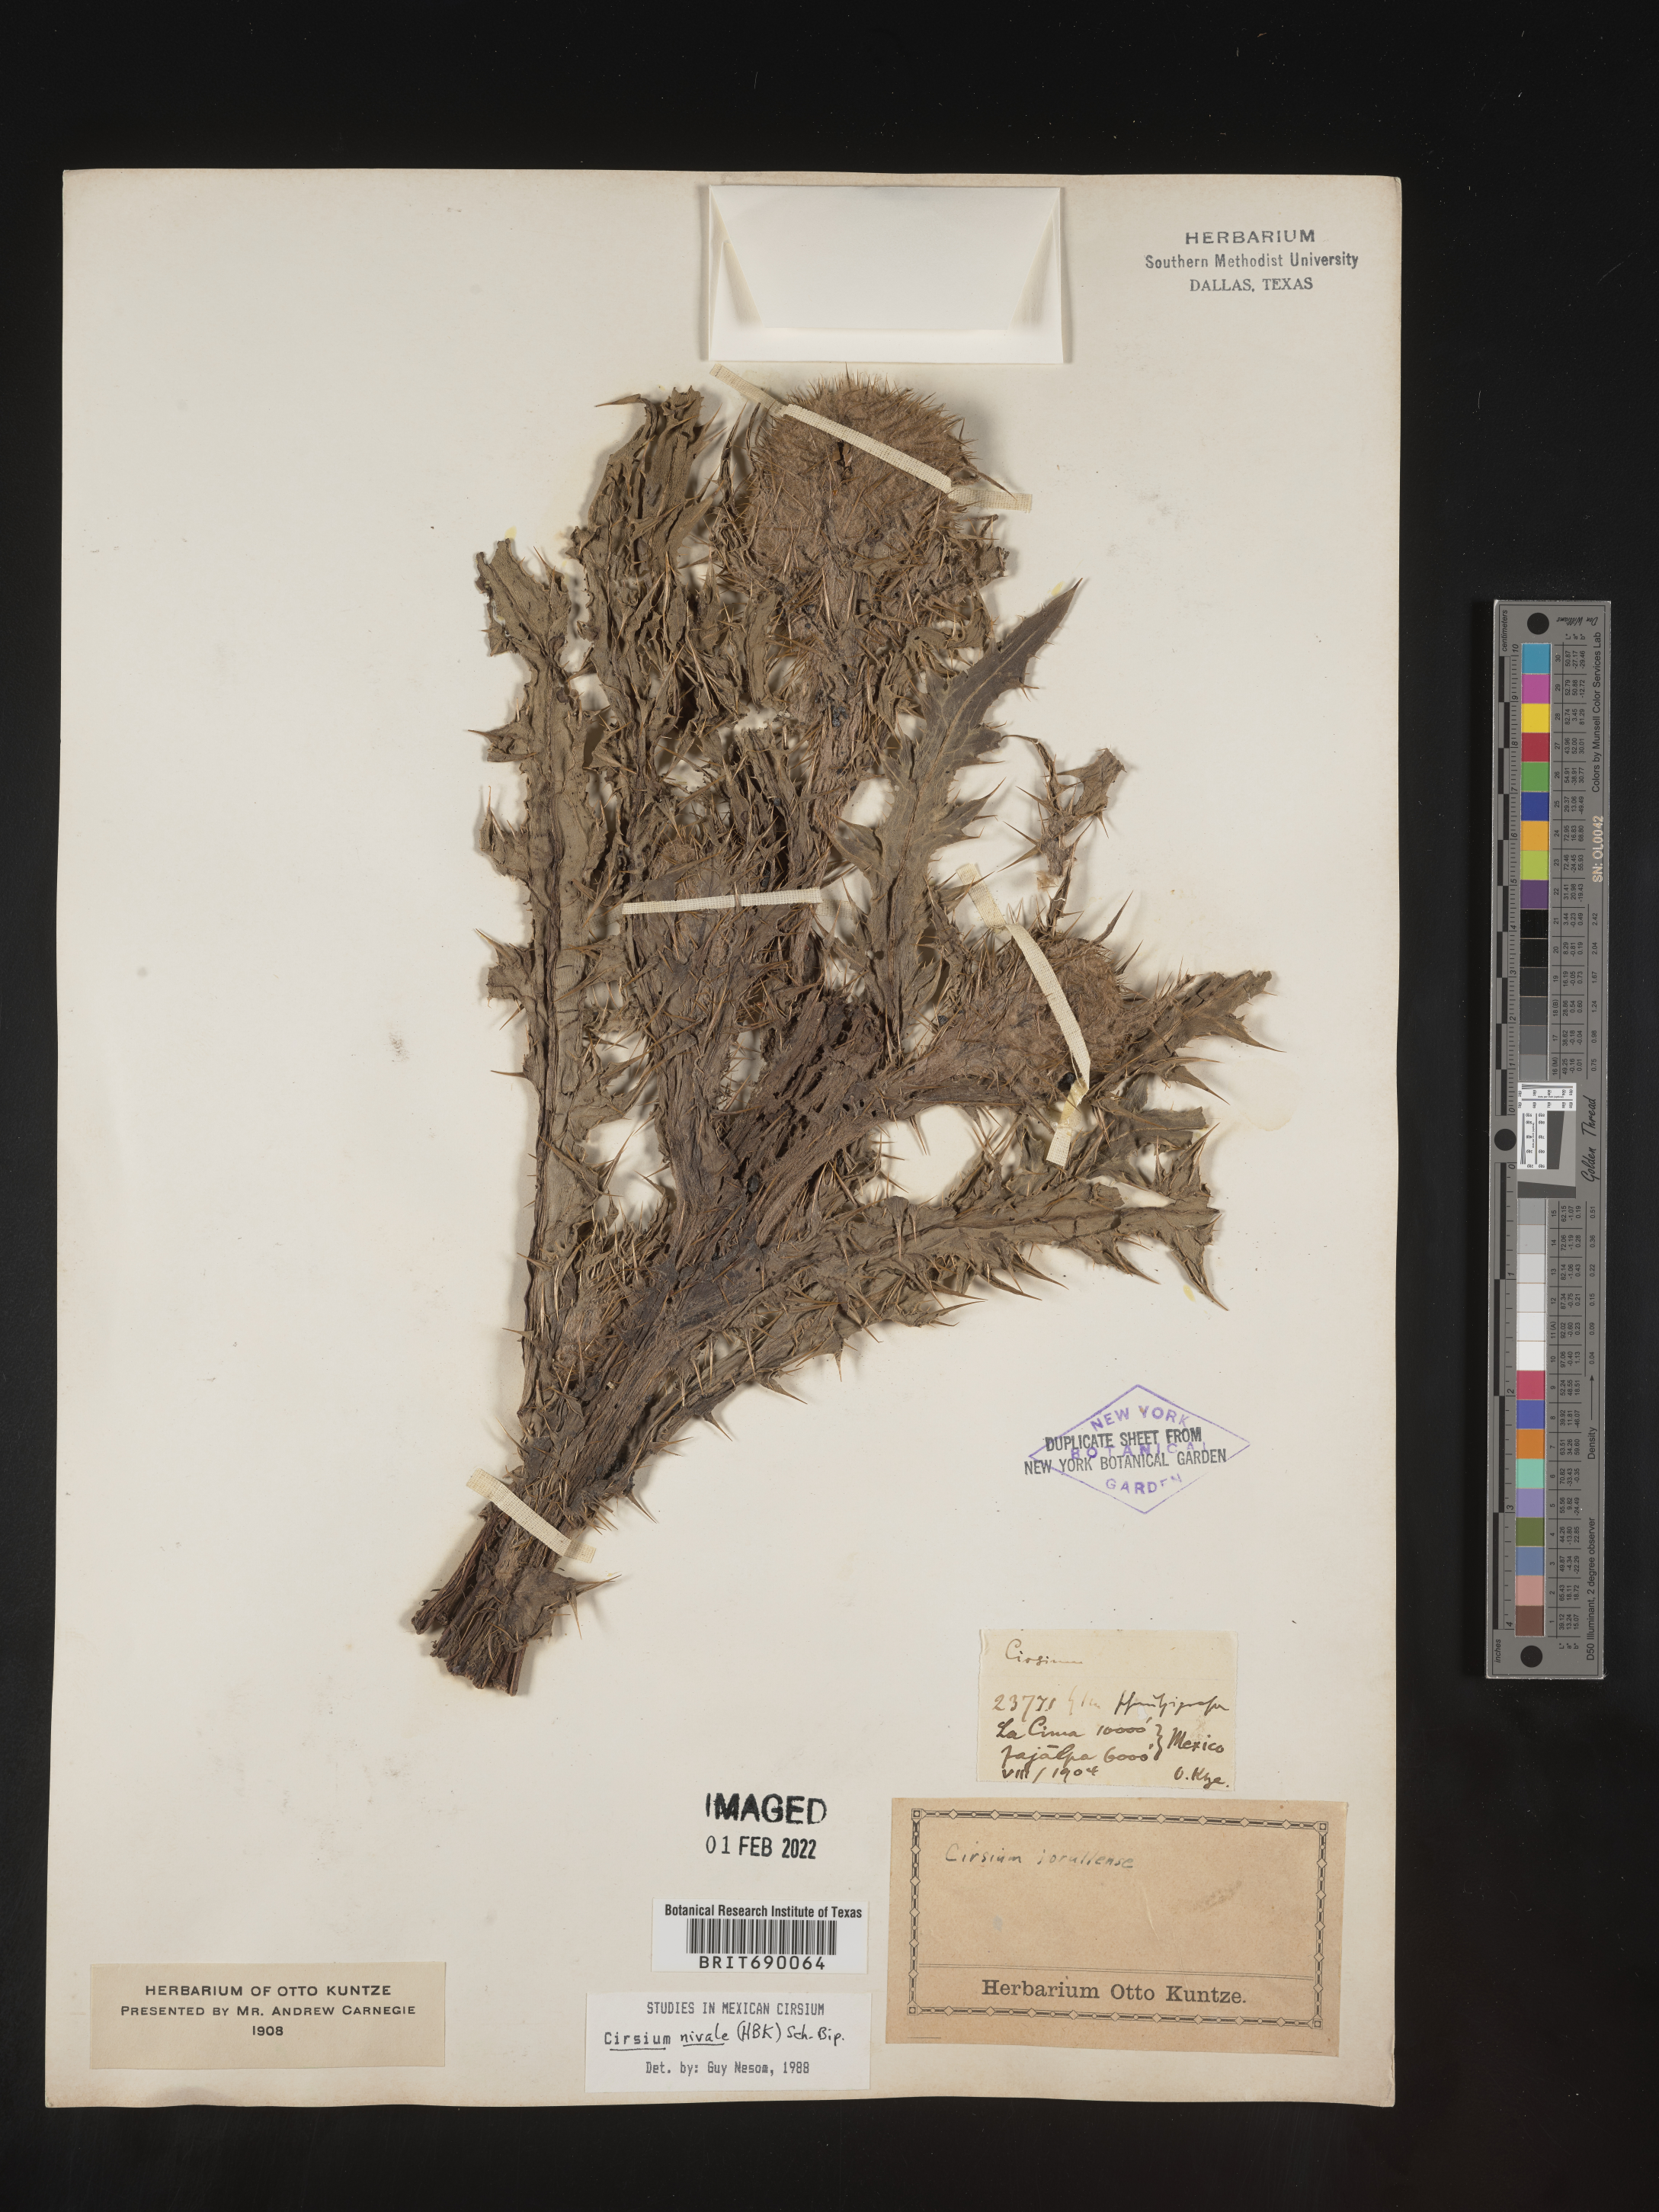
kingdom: Plantae
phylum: Tracheophyta
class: Magnoliopsida
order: Asterales
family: Asteraceae
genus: Cirsium
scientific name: Cirsium
